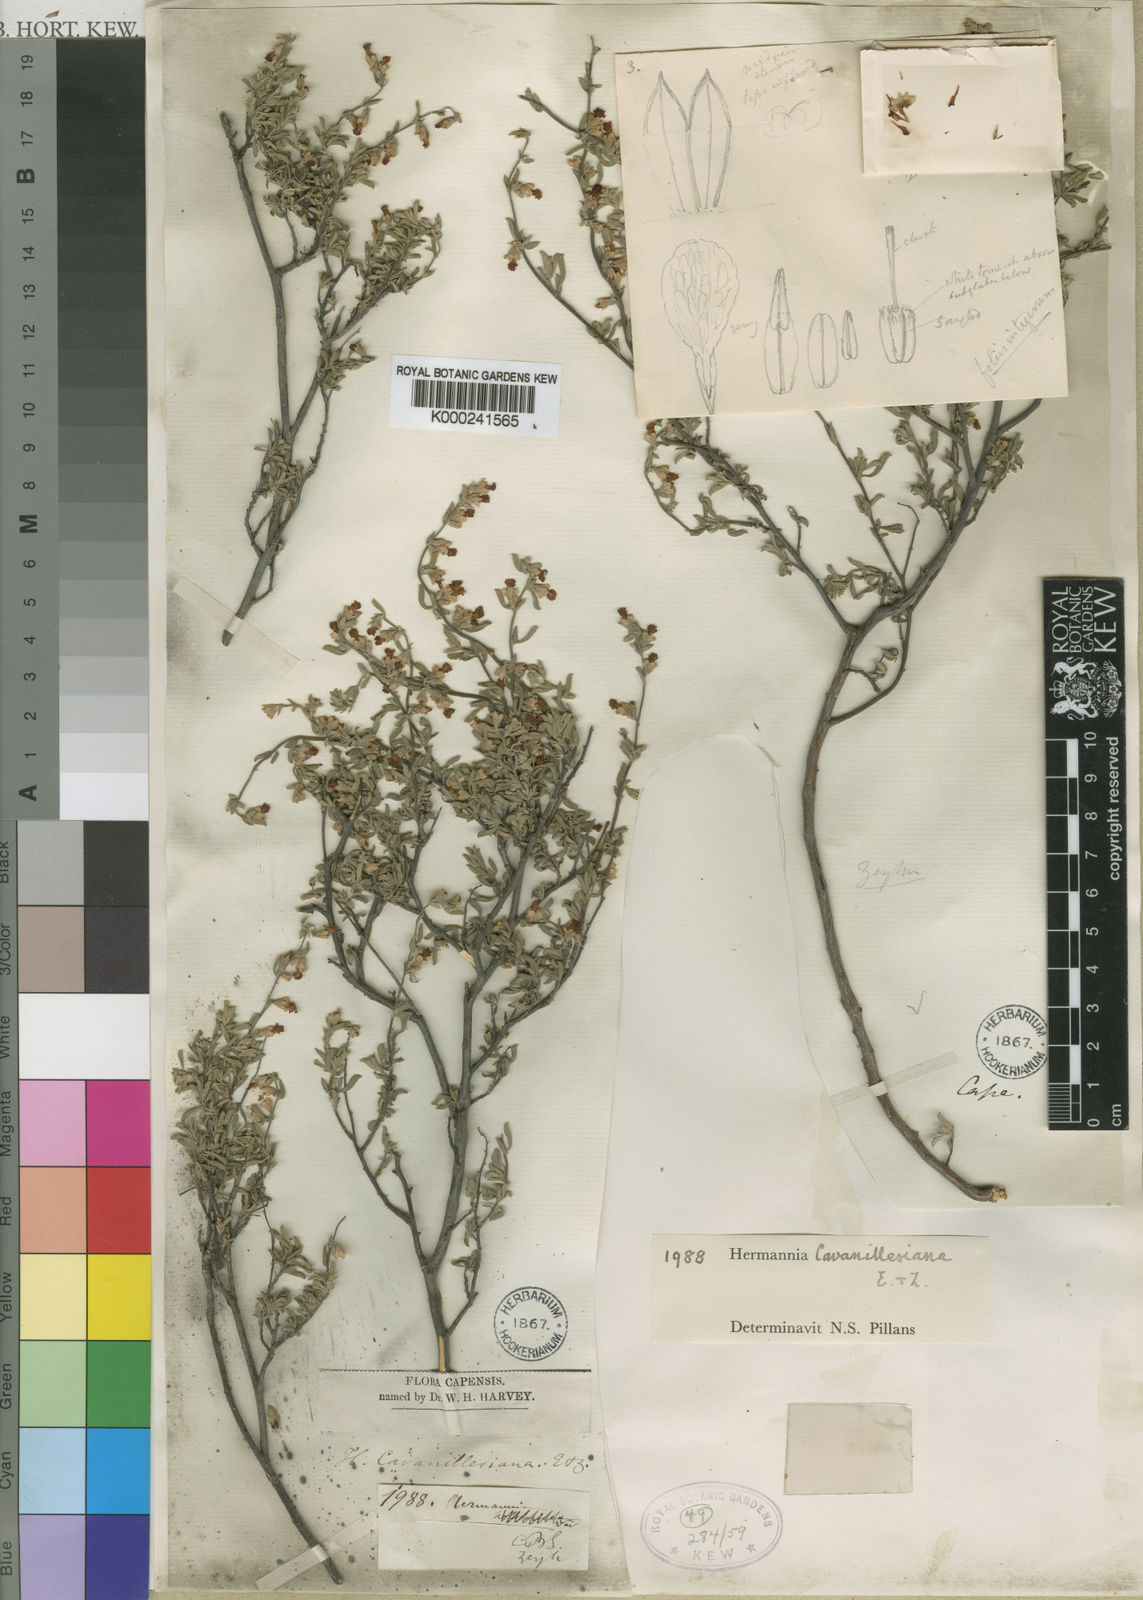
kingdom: Plantae
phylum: Tracheophyta
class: Magnoliopsida
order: Malvales
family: Malvaceae
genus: Hermannia
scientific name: Hermannia lavandulifolia
